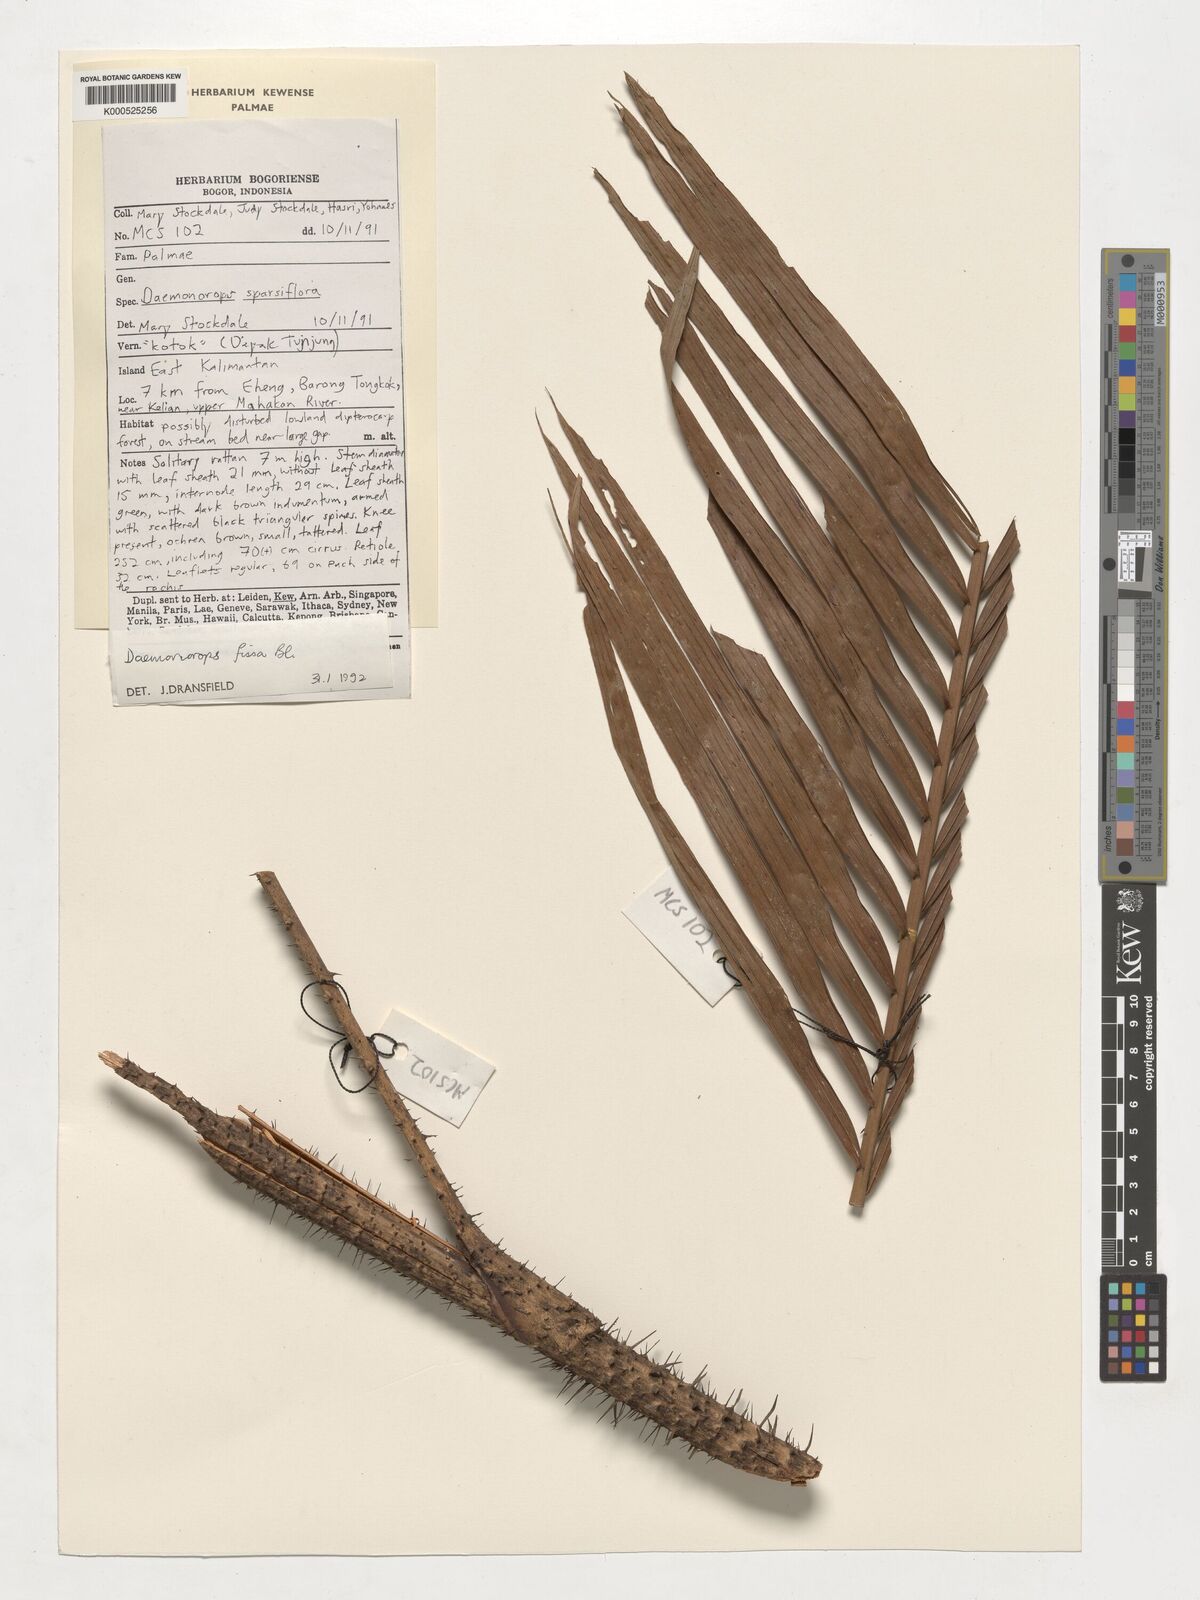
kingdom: Plantae
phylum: Tracheophyta
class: Liliopsida
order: Arecales
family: Arecaceae
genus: Calamus
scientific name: Calamus melanochaetes
